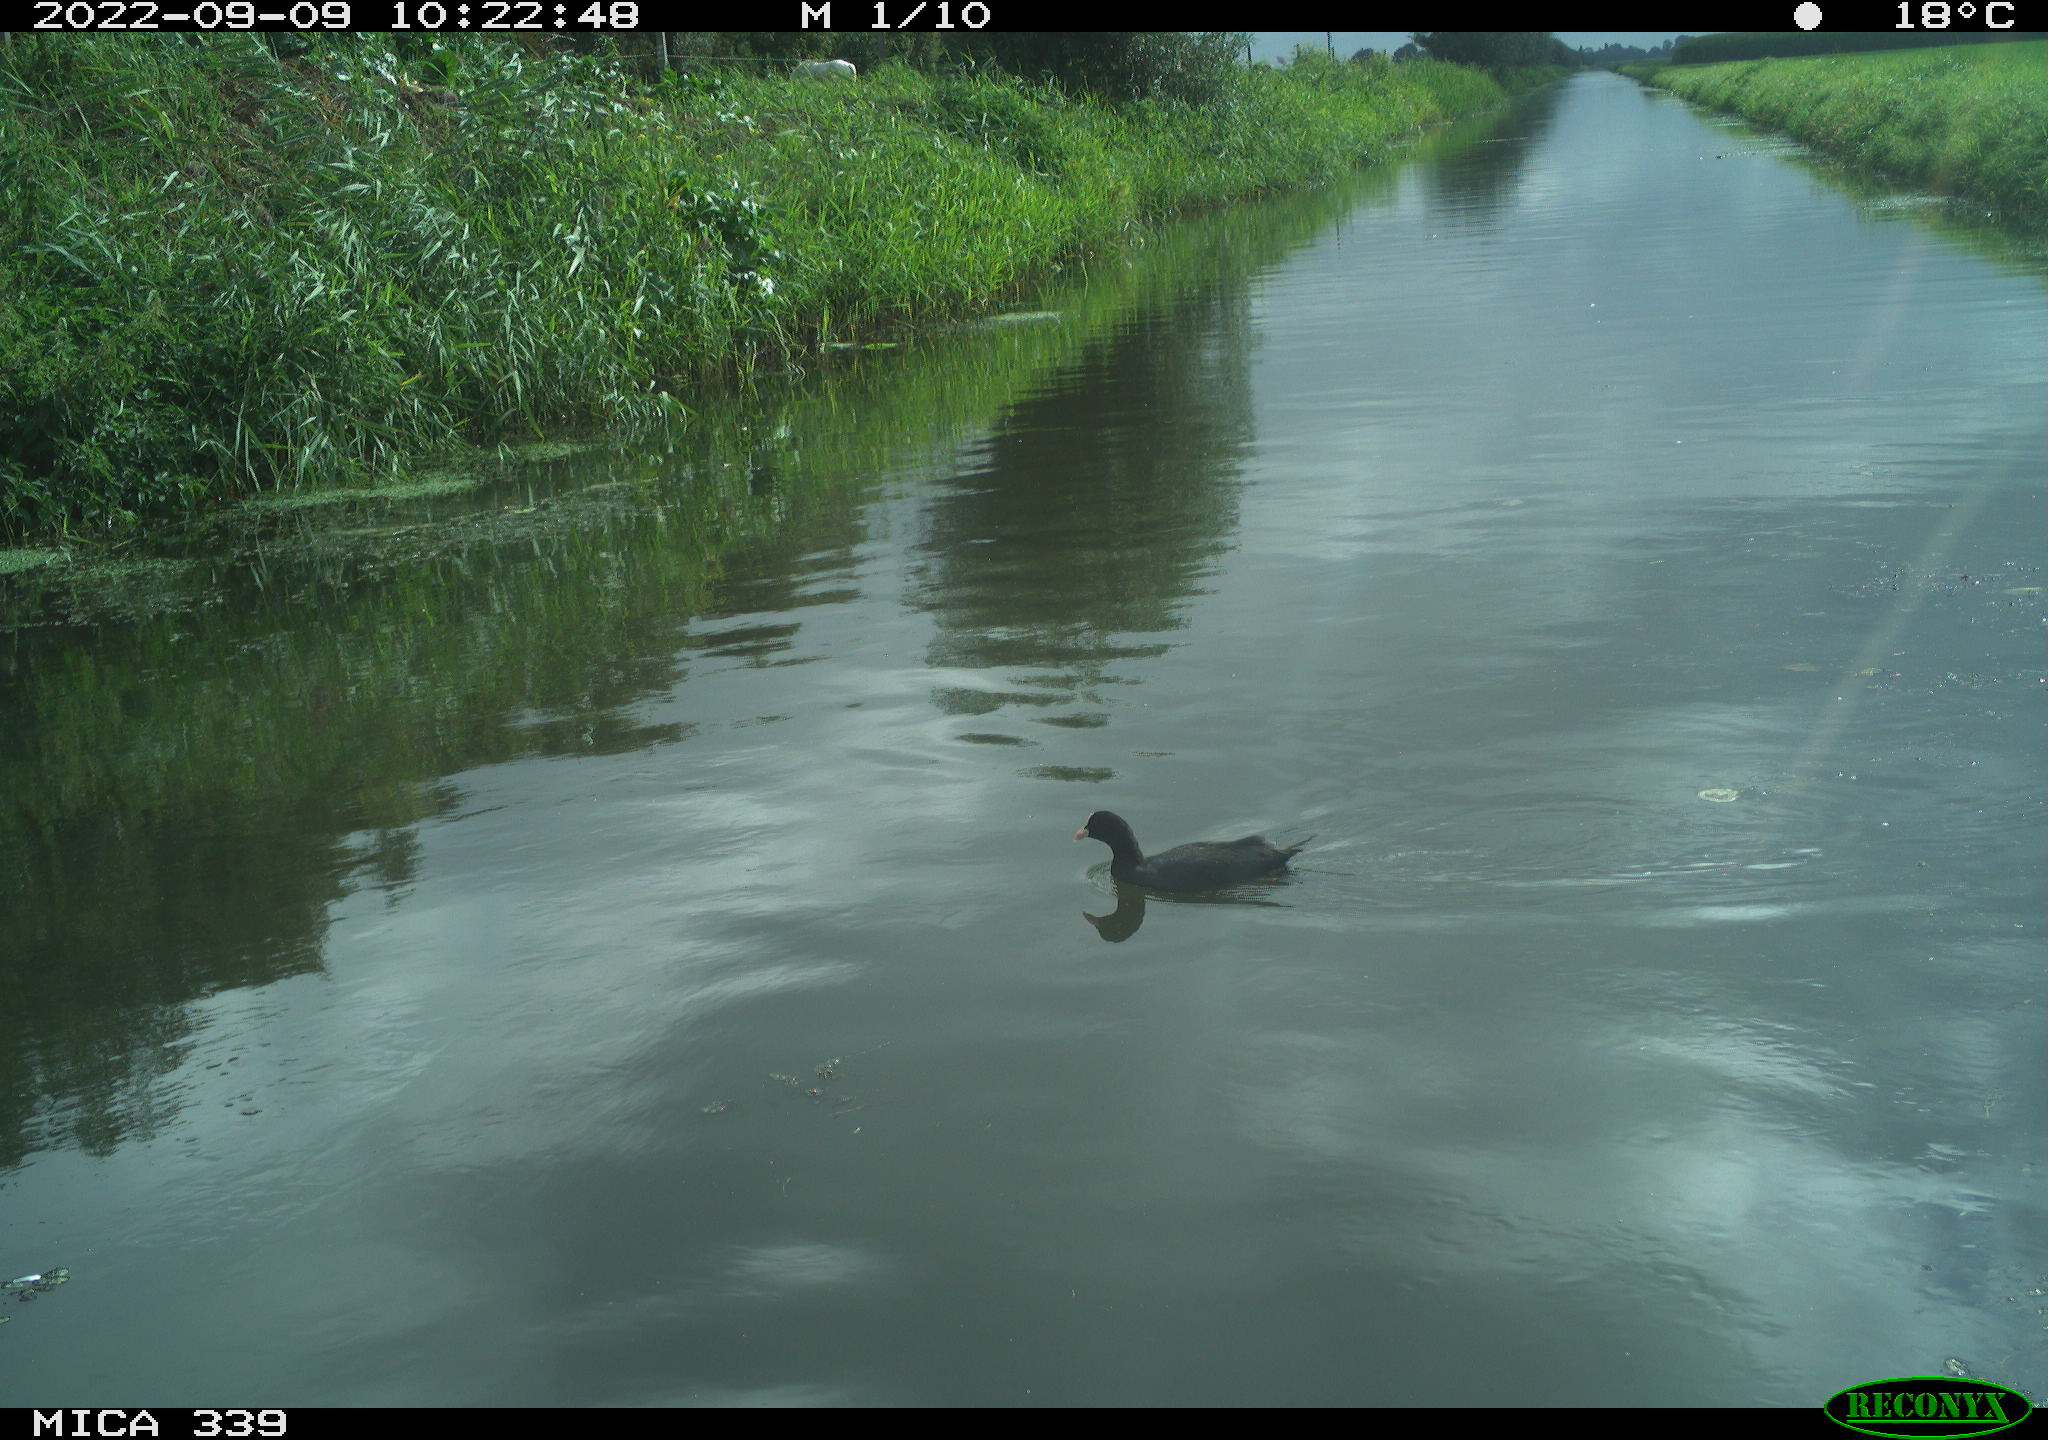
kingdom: Animalia
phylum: Chordata
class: Aves
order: Gruiformes
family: Rallidae
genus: Fulica
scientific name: Fulica atra
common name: Eurasian coot
